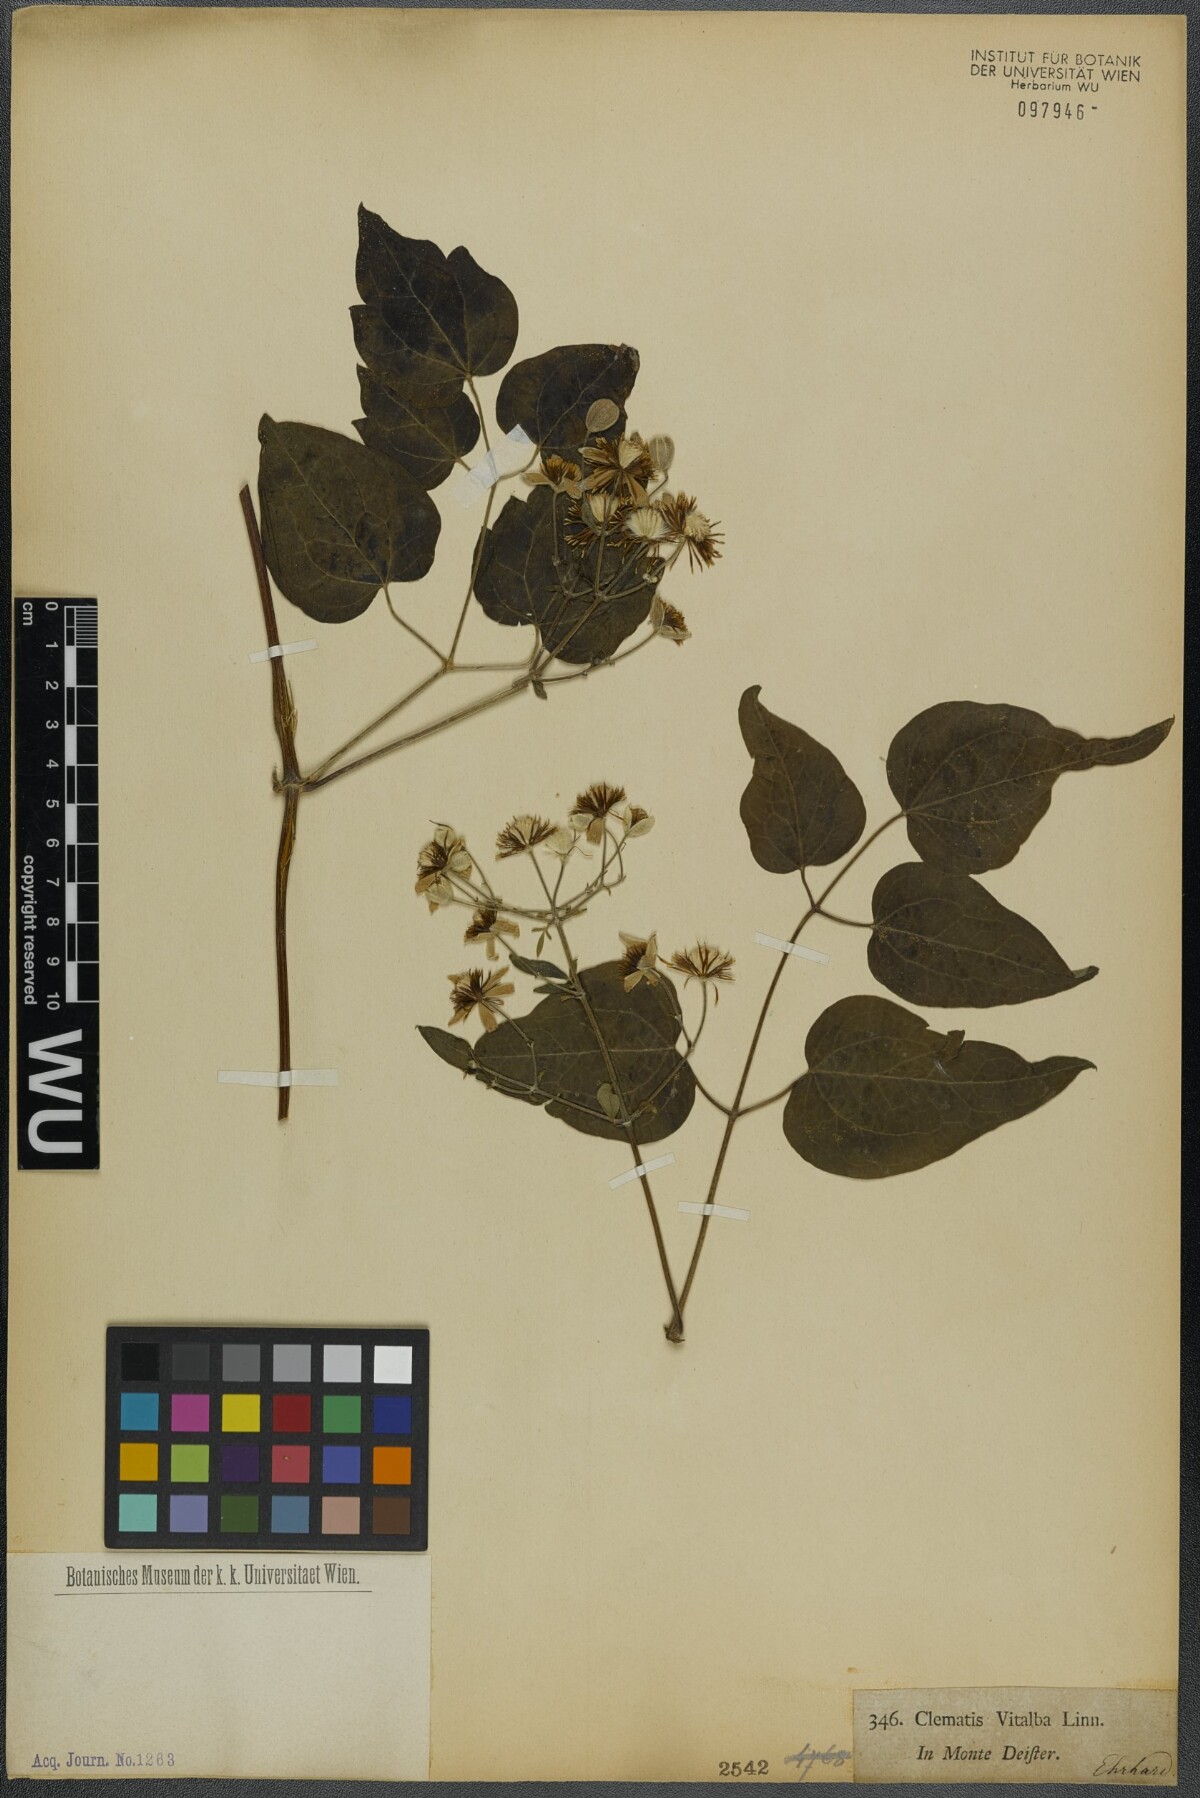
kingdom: Plantae
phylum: Tracheophyta
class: Magnoliopsida
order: Ranunculales
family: Ranunculaceae
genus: Clematis
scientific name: Clematis vitalba
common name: Evergreen clematis
